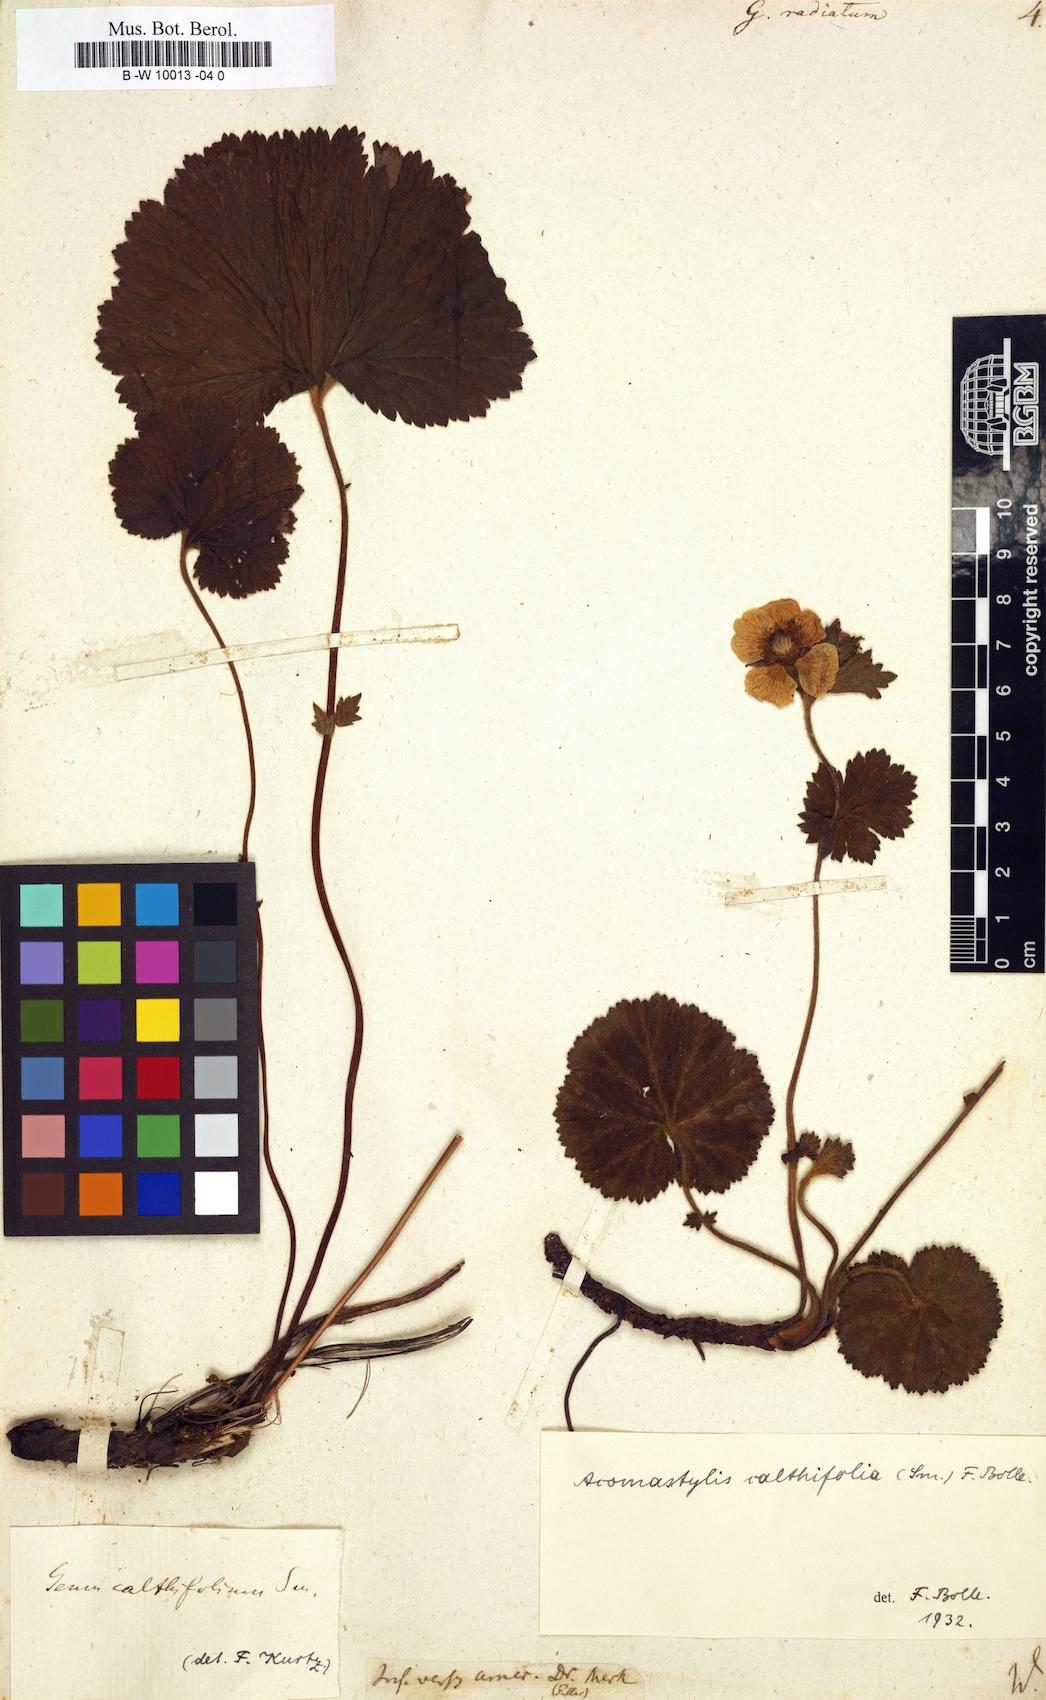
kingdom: Plantae
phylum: Tracheophyta
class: Magnoliopsida
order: Rosales
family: Rosaceae
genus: Geum
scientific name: Geum radiatum
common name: Spreaded avens
